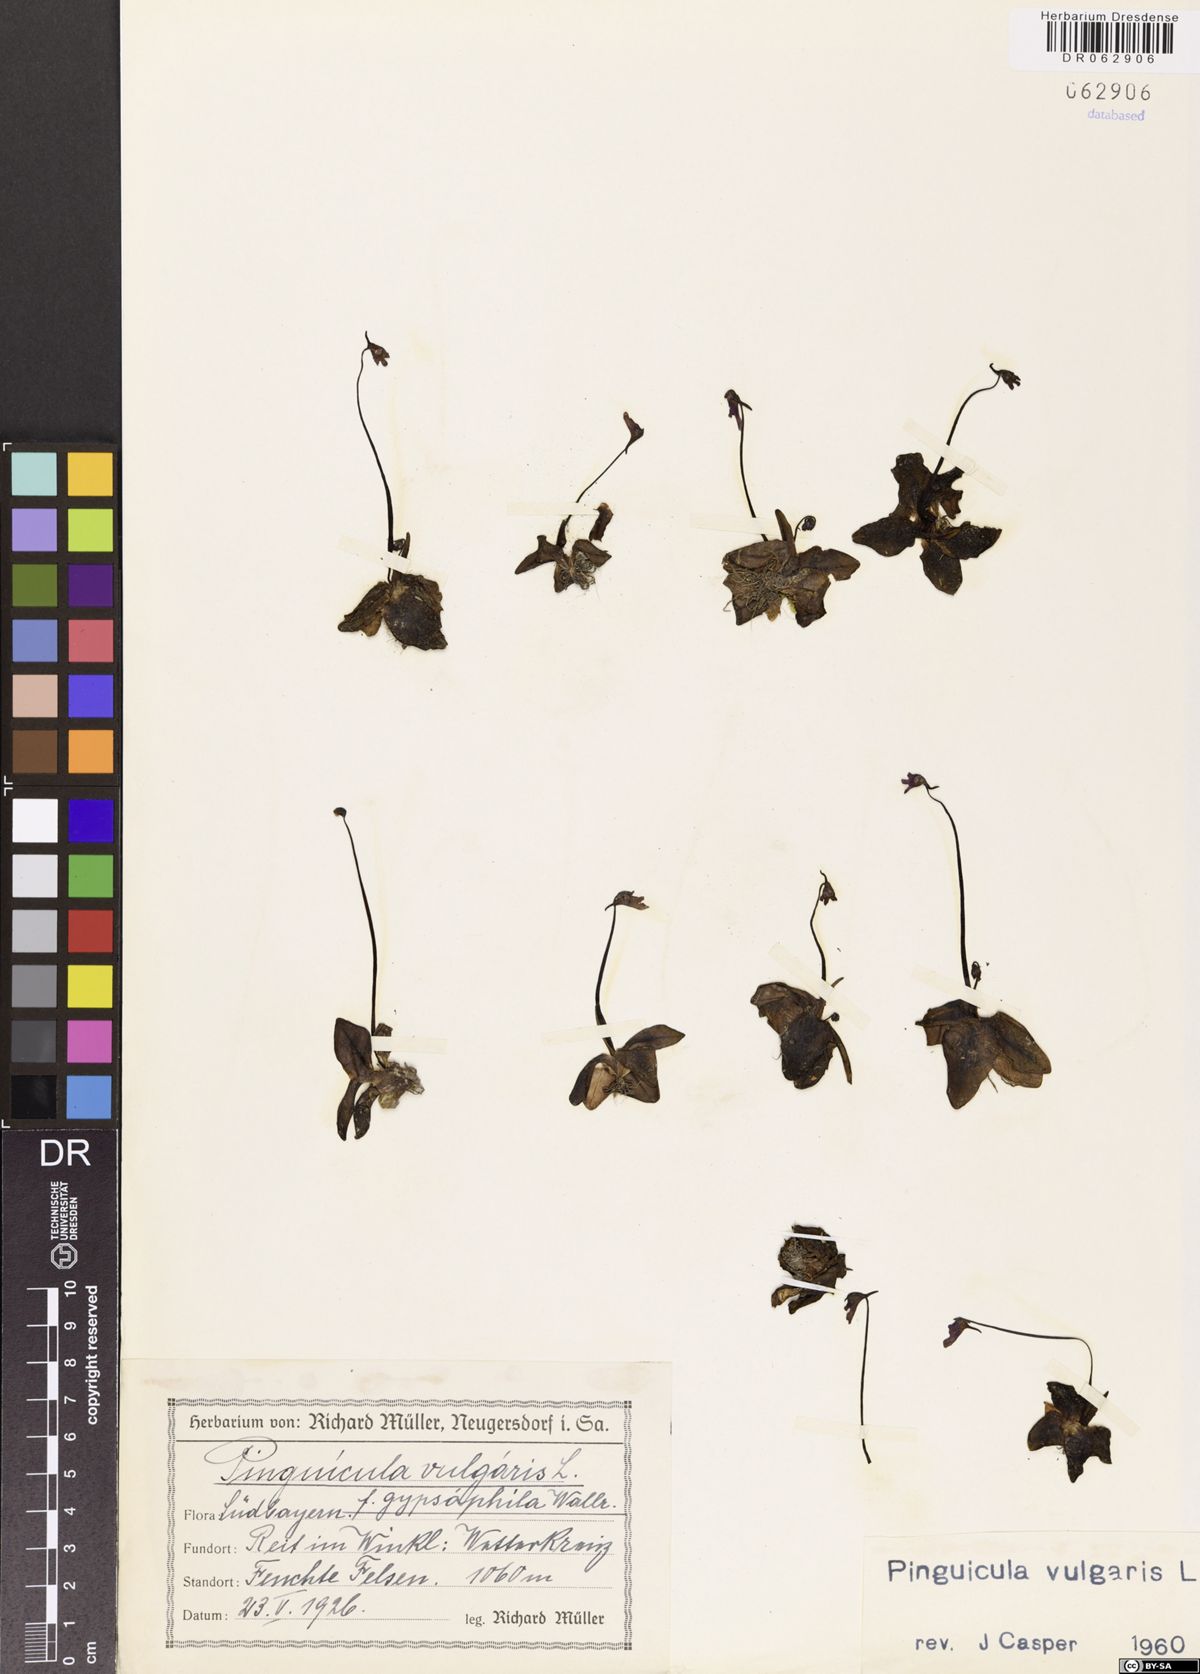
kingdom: Plantae
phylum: Tracheophyta
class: Magnoliopsida
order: Lamiales
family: Lentibulariaceae
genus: Pinguicula
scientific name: Pinguicula vulgaris
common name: Common butterwort
